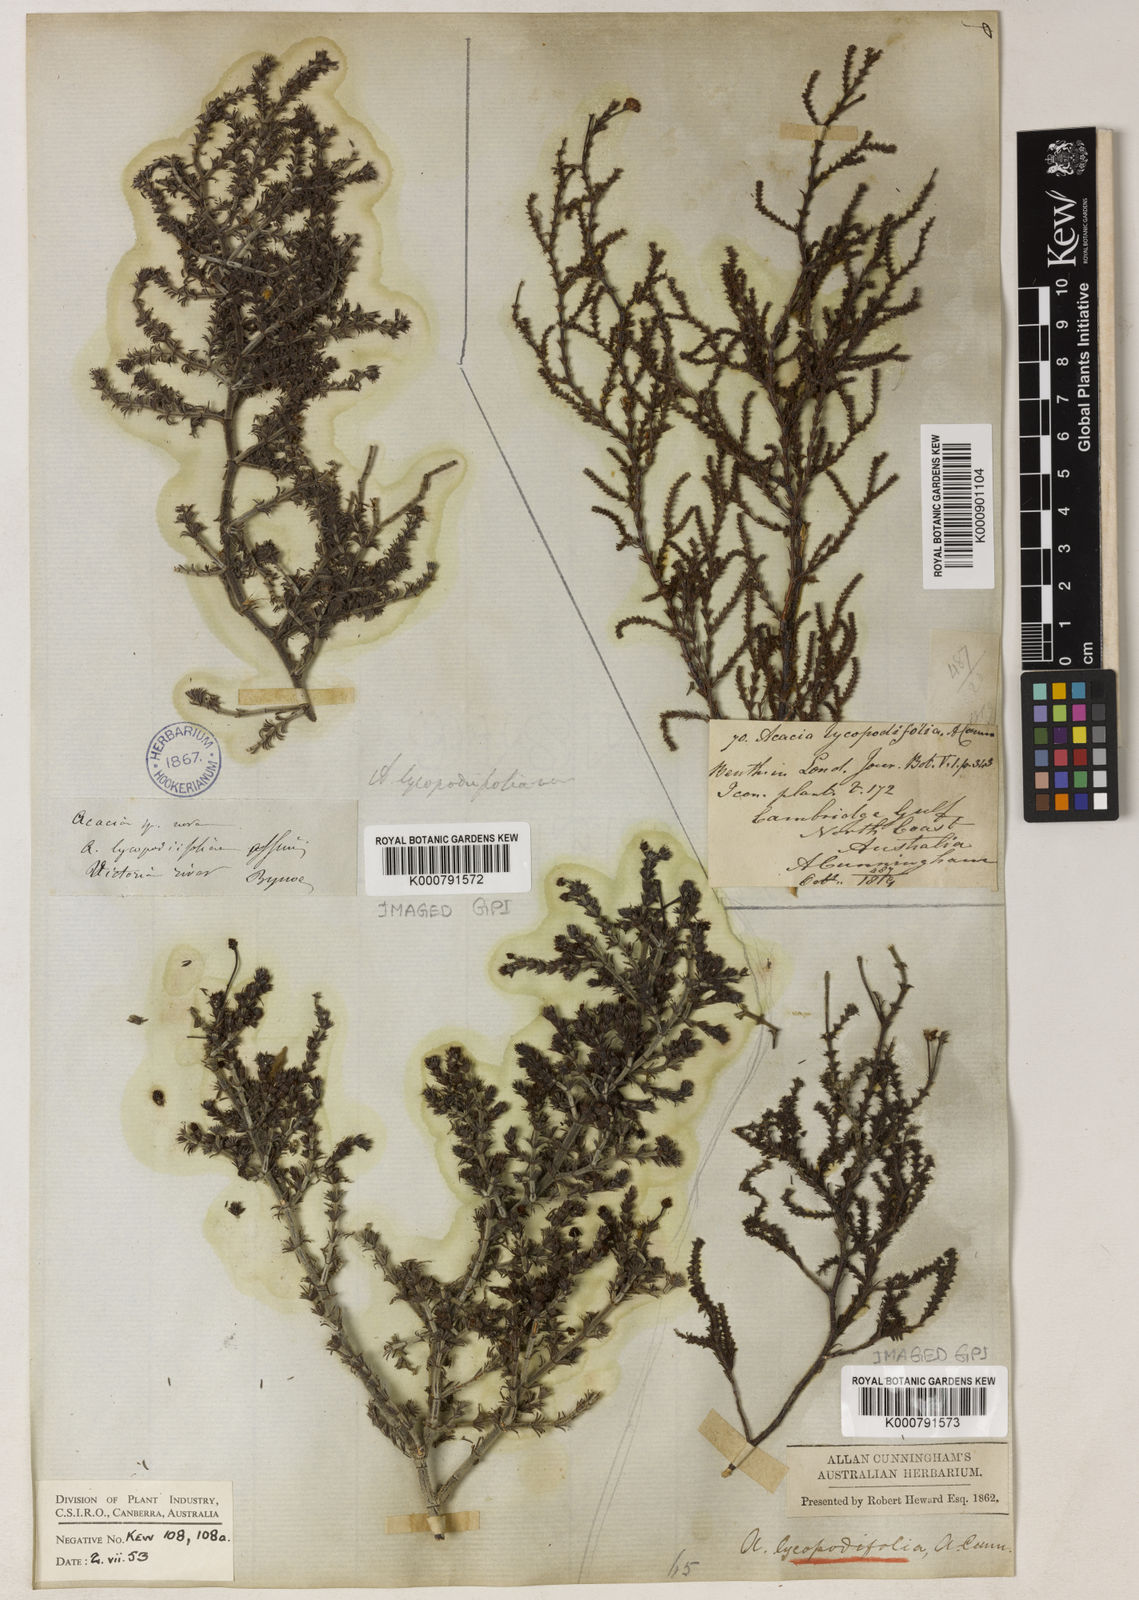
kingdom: Plantae
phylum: Tracheophyta
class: Magnoliopsida
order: Fabales
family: Fabaceae
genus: Acacia
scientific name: Acacia lycopodiifolia
